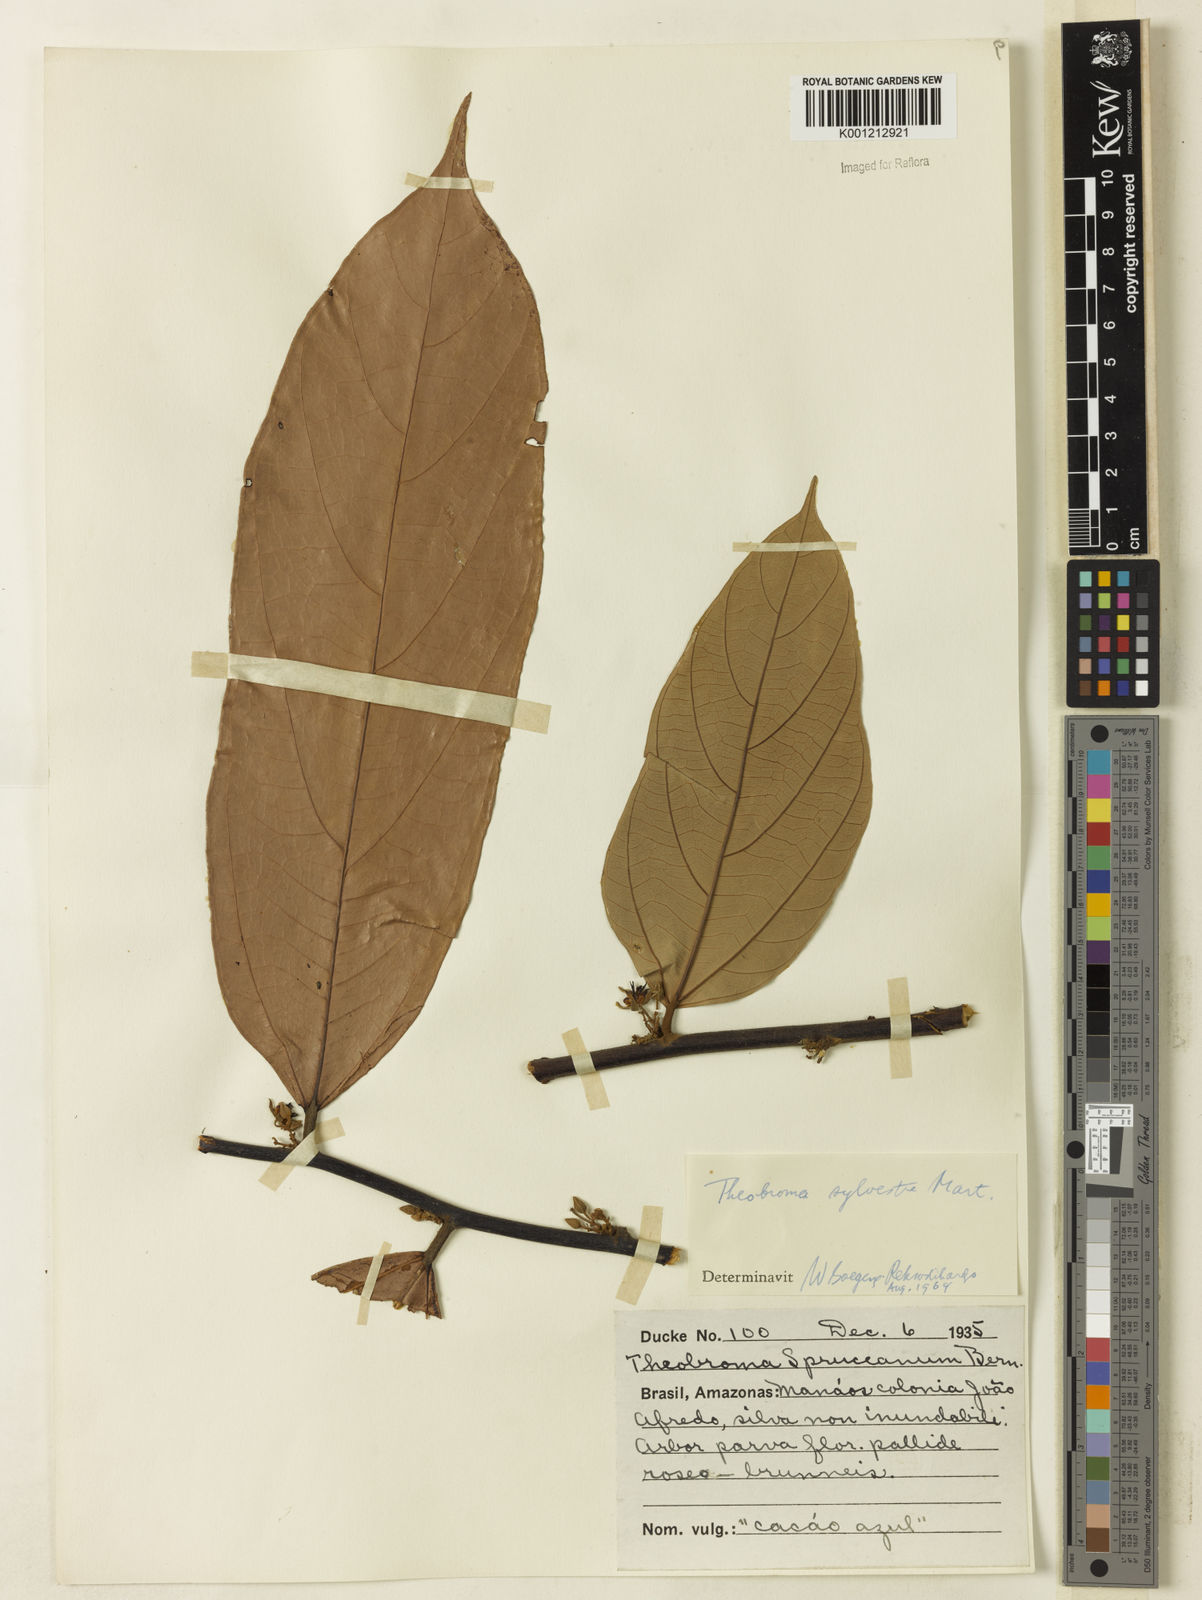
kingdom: Plantae
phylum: Tracheophyta
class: Magnoliopsida
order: Malvales
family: Malvaceae
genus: Theobroma
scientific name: Theobroma sylvestre
